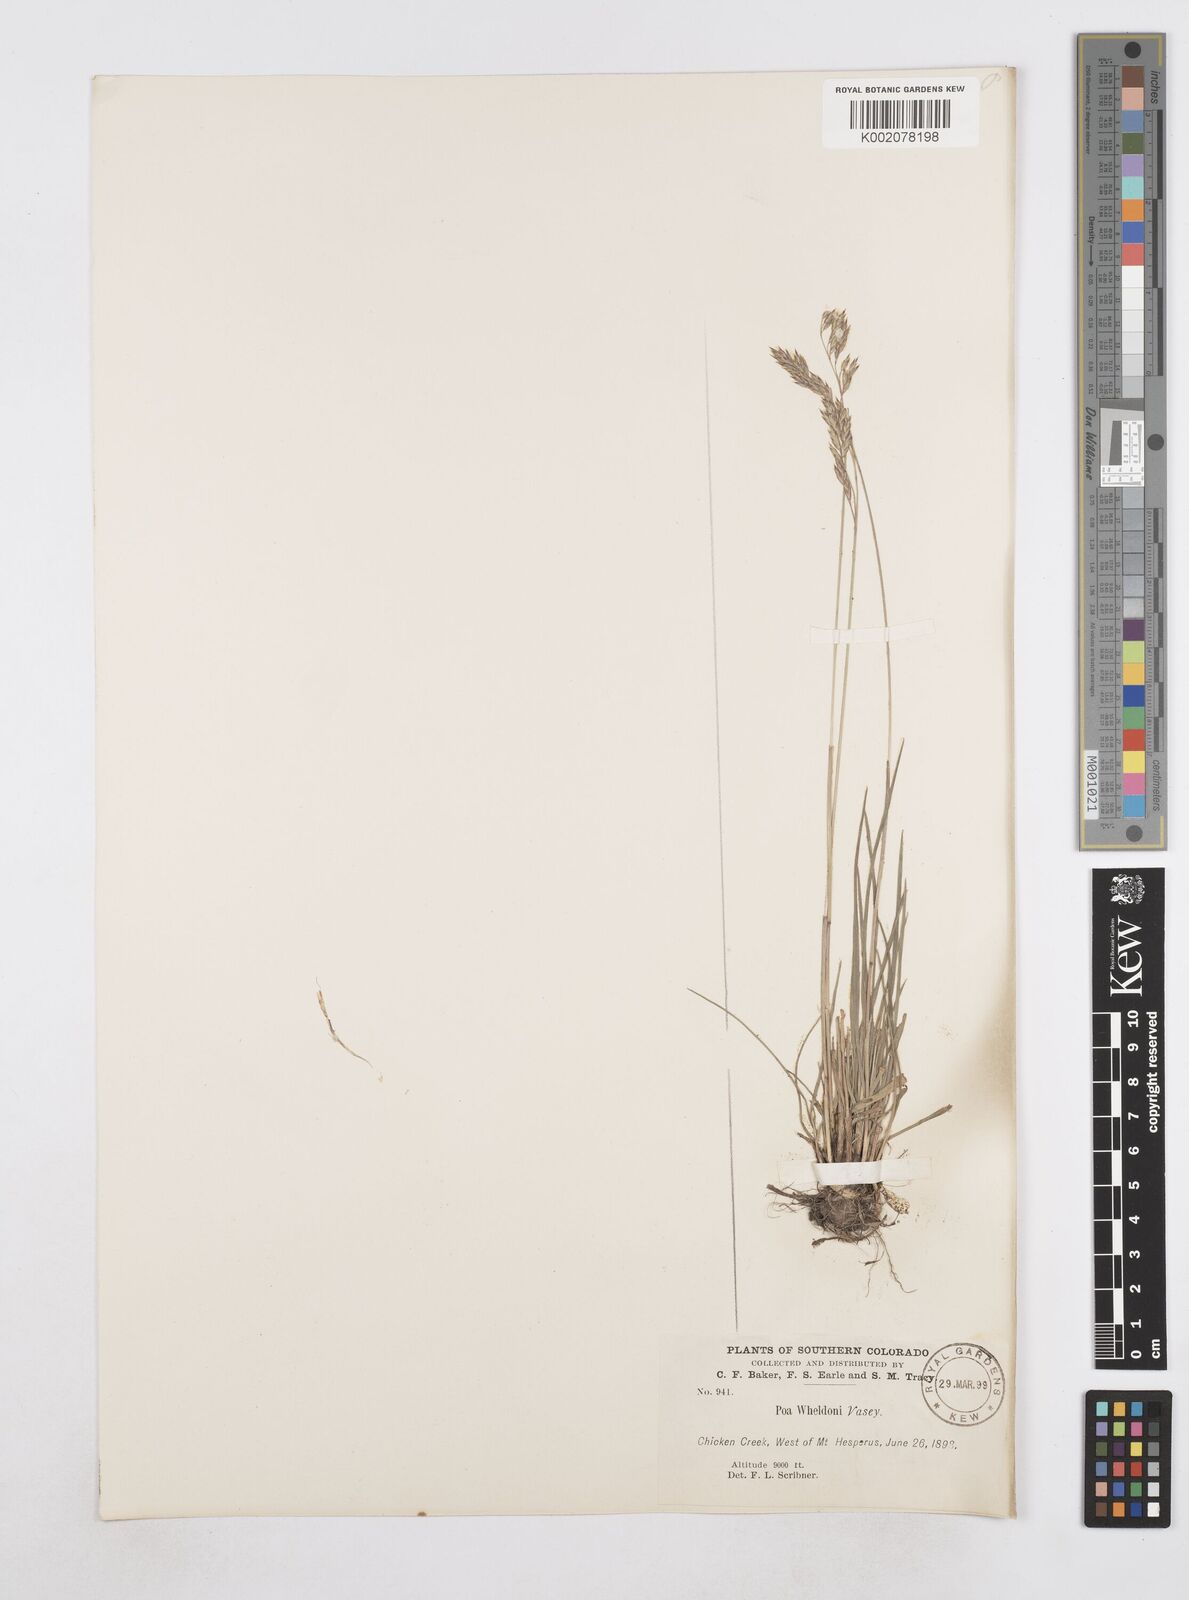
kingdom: Plantae
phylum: Tracheophyta
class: Liliopsida
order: Poales
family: Poaceae
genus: Poa
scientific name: Poa
